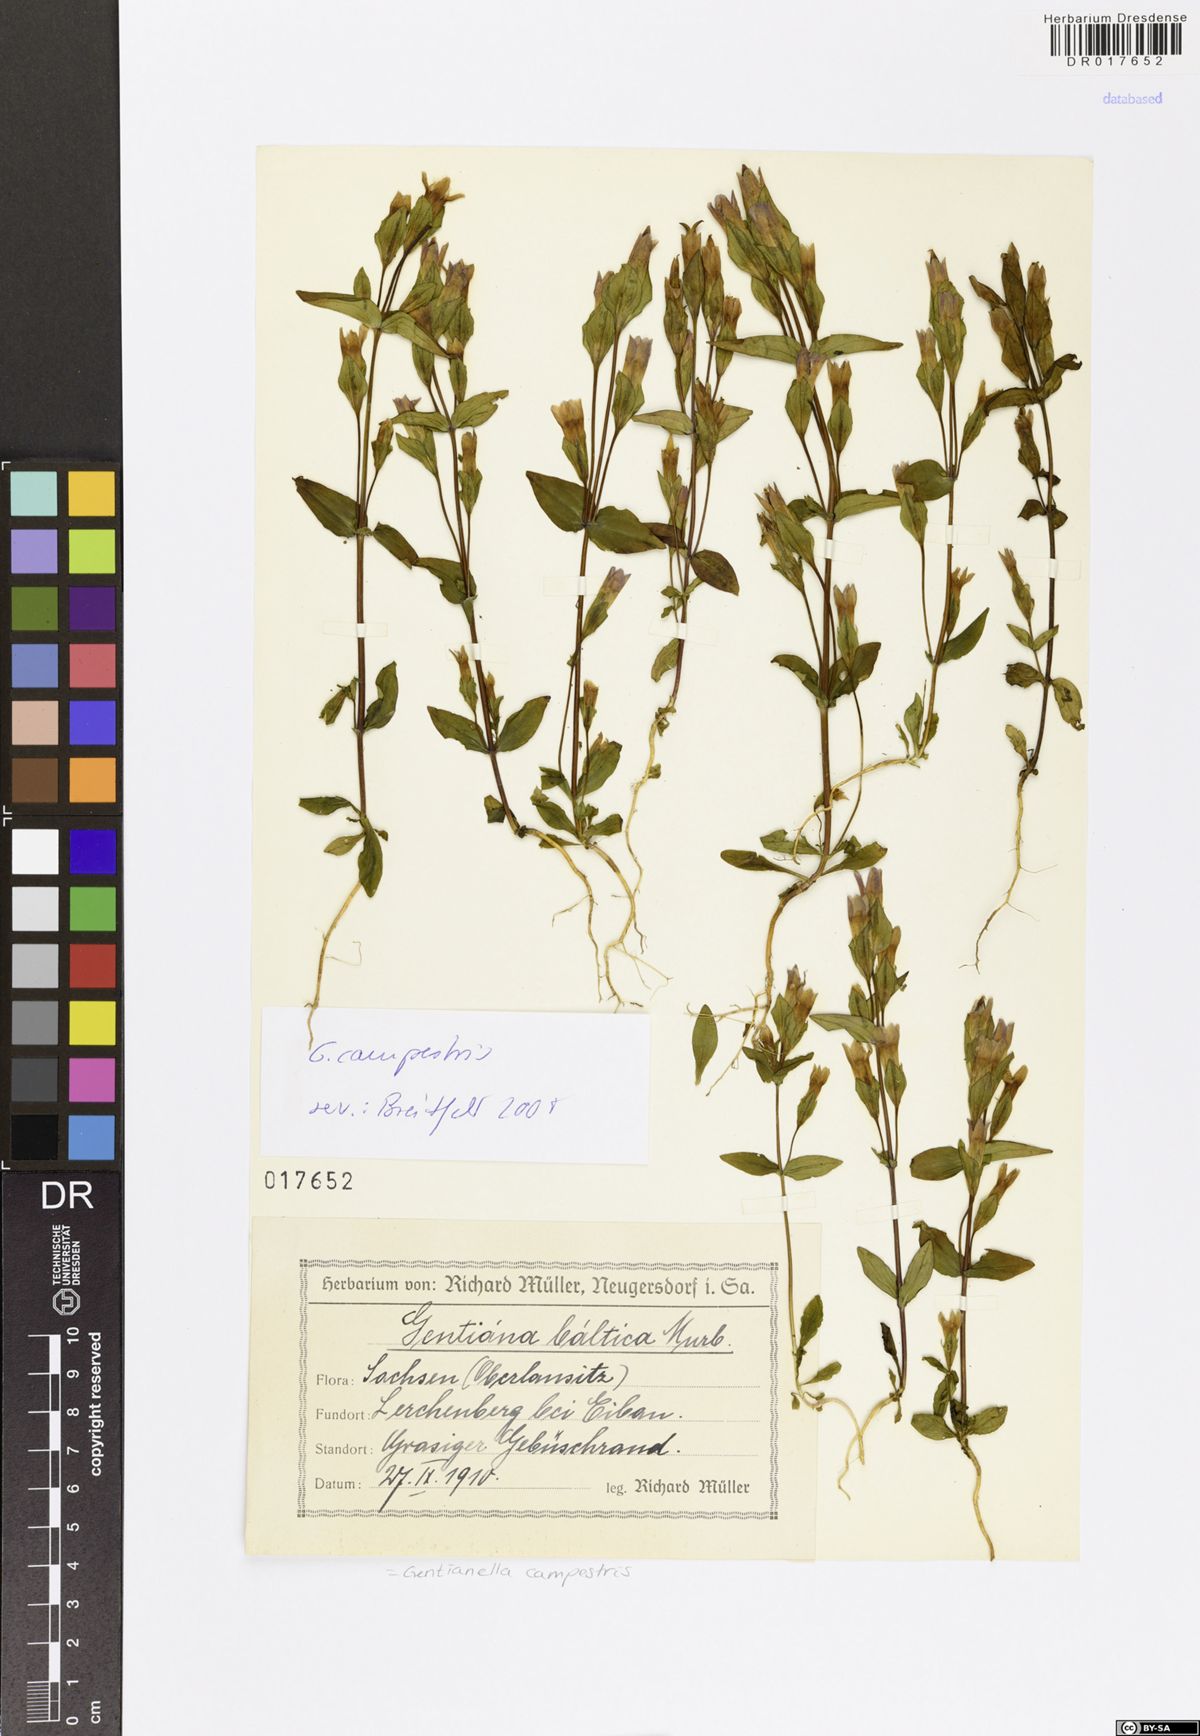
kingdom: Plantae
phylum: Tracheophyta
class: Magnoliopsida
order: Gentianales
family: Gentianaceae
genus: Gentianella
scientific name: Gentianella campestris
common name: Field gentian
